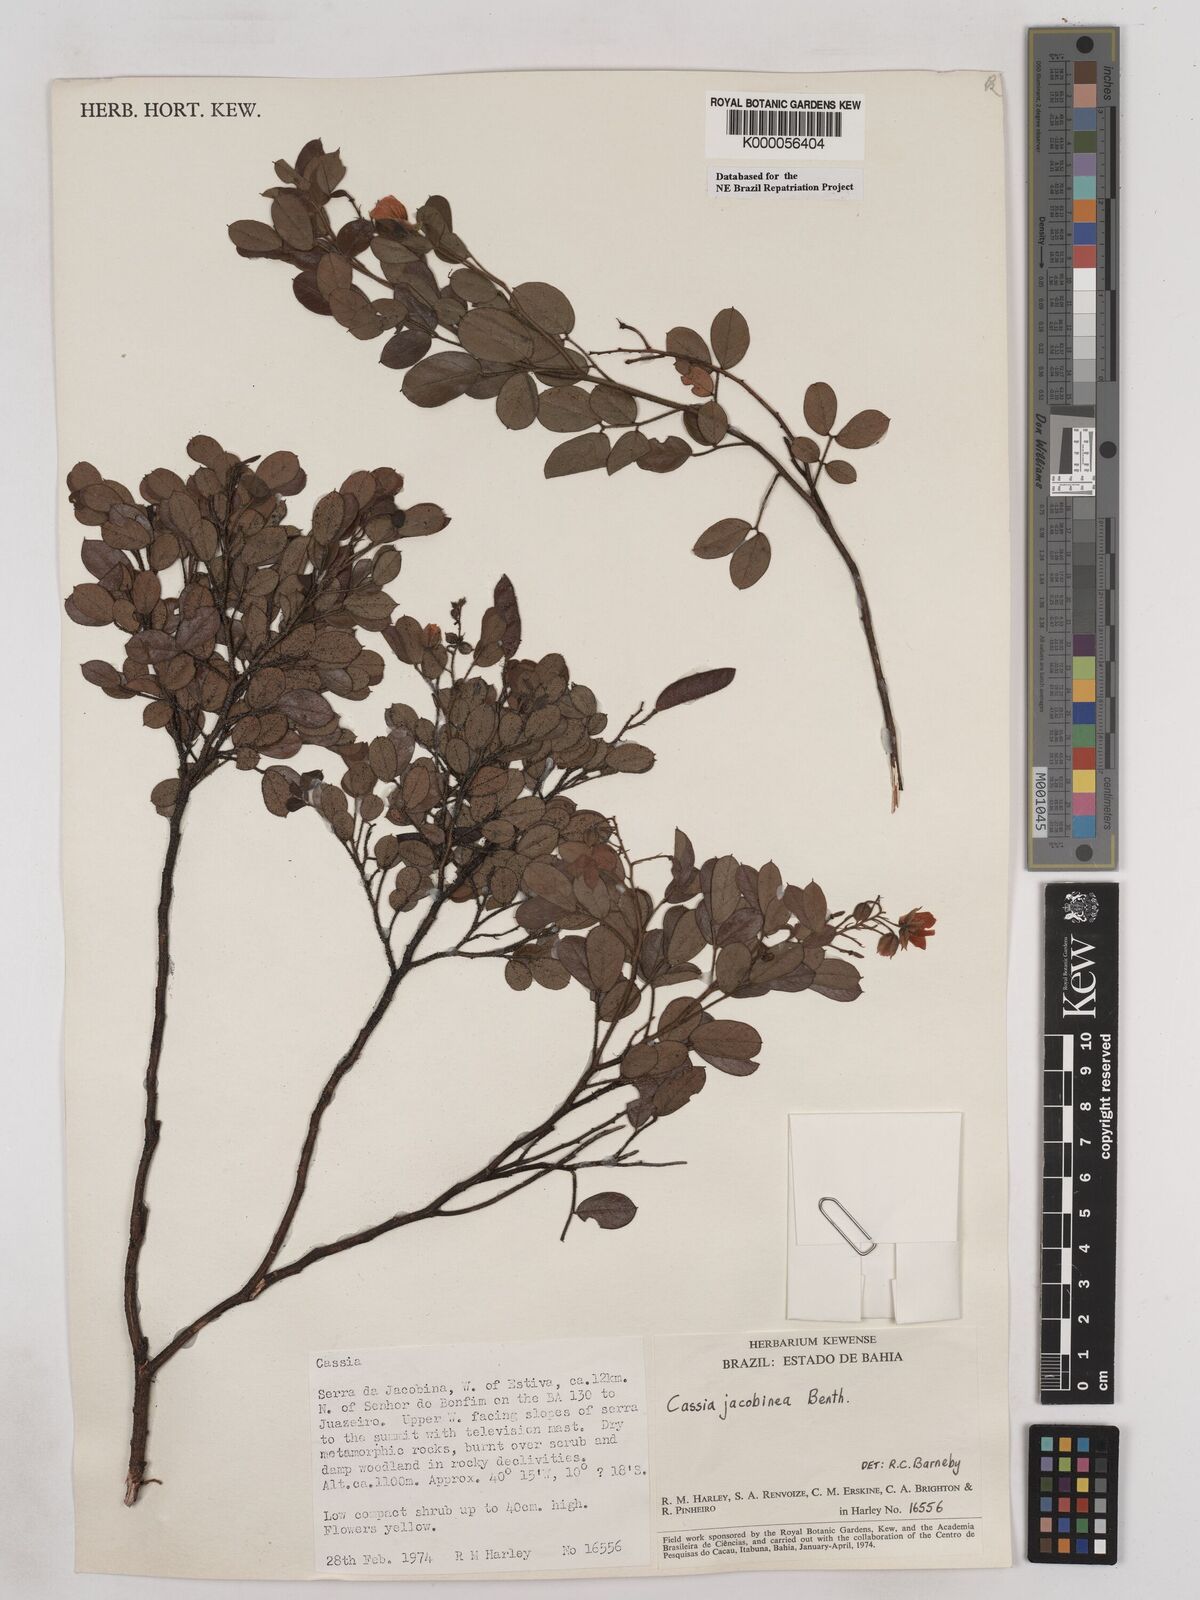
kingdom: Plantae
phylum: Tracheophyta
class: Magnoliopsida
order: Fabales
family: Fabaceae
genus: Chamaecrista
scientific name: Chamaecrista jacobinea
